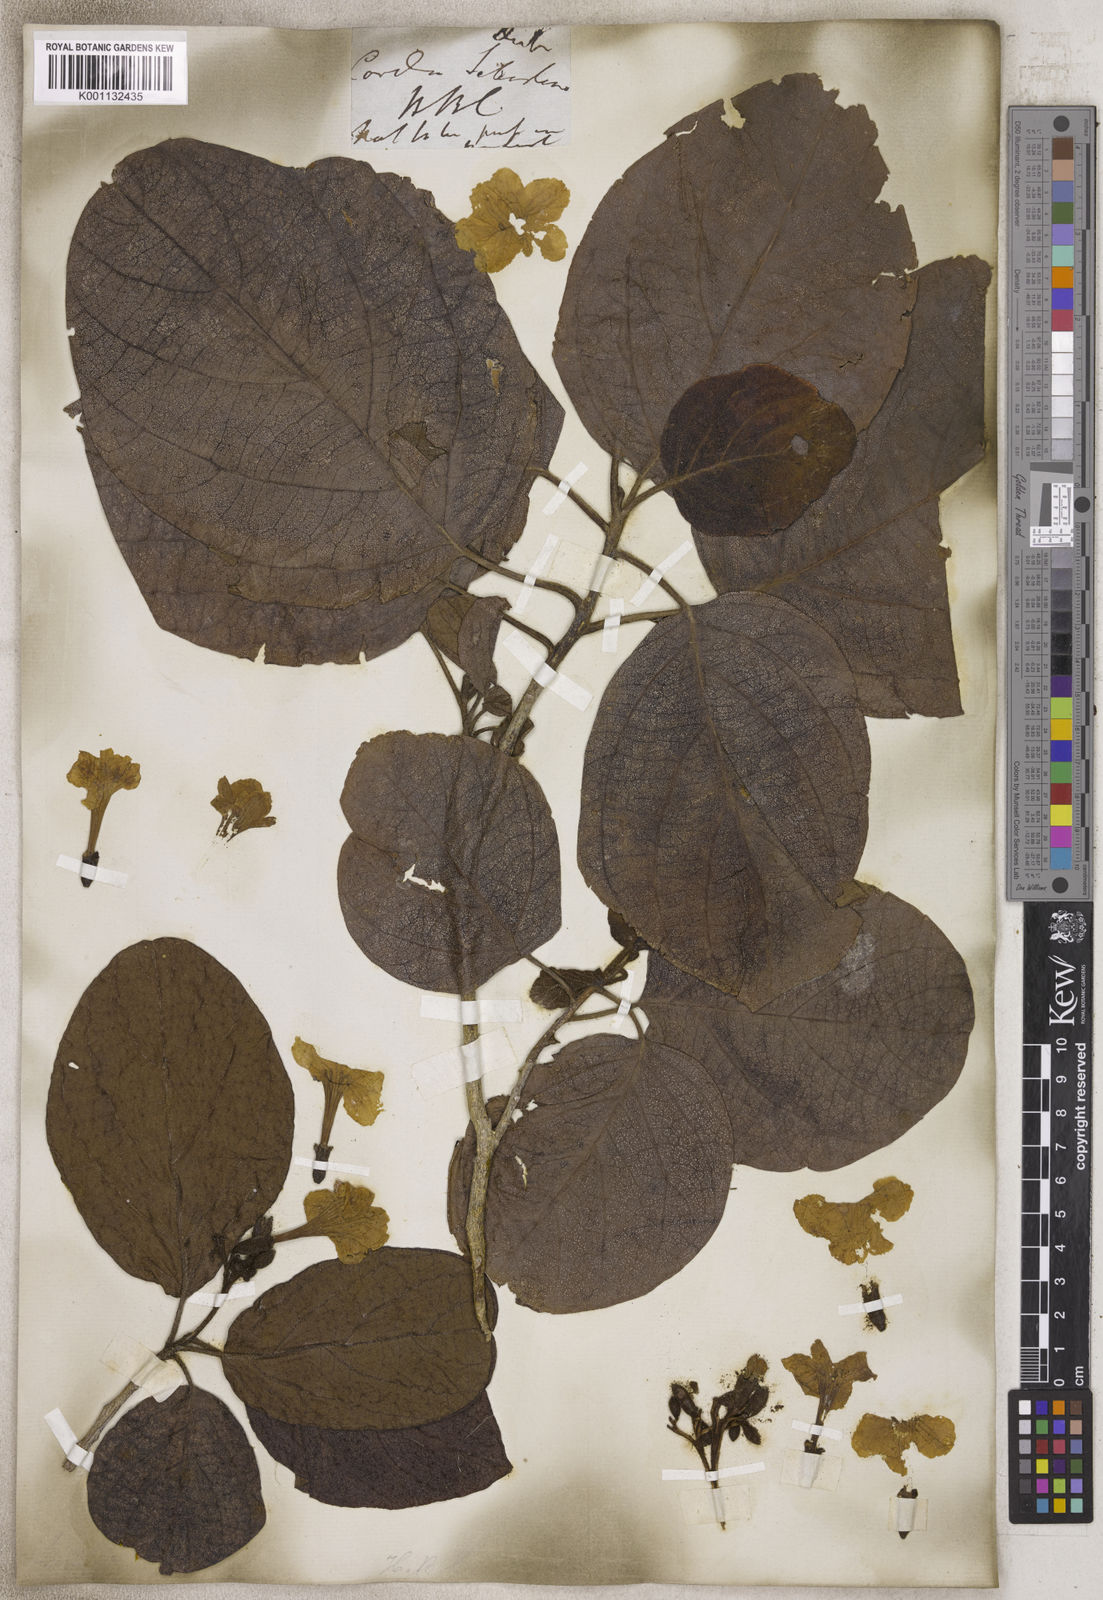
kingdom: Plantae
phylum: Tracheophyta
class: Magnoliopsida
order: Boraginales
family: Cordiaceae
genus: Cordia
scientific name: Cordia
